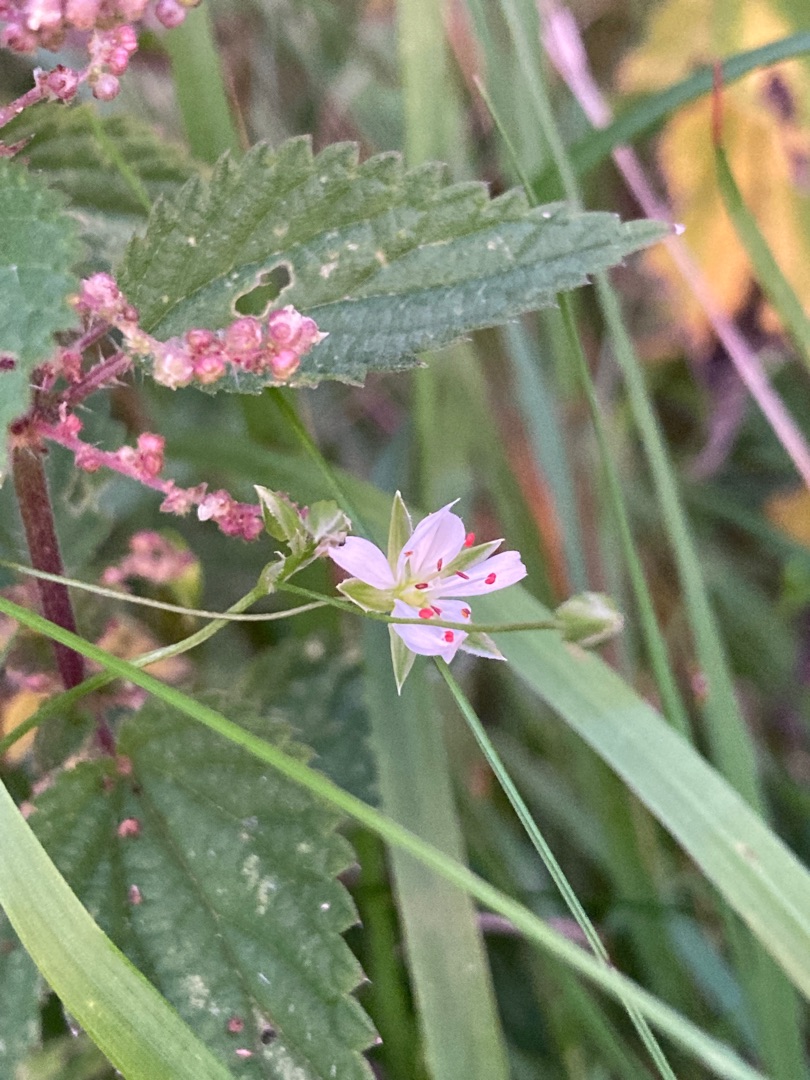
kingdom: Plantae
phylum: Tracheophyta
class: Magnoliopsida
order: Caryophyllales
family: Caryophyllaceae
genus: Stellaria
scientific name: Stellaria graminea
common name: Græsbladet fladstjerne
